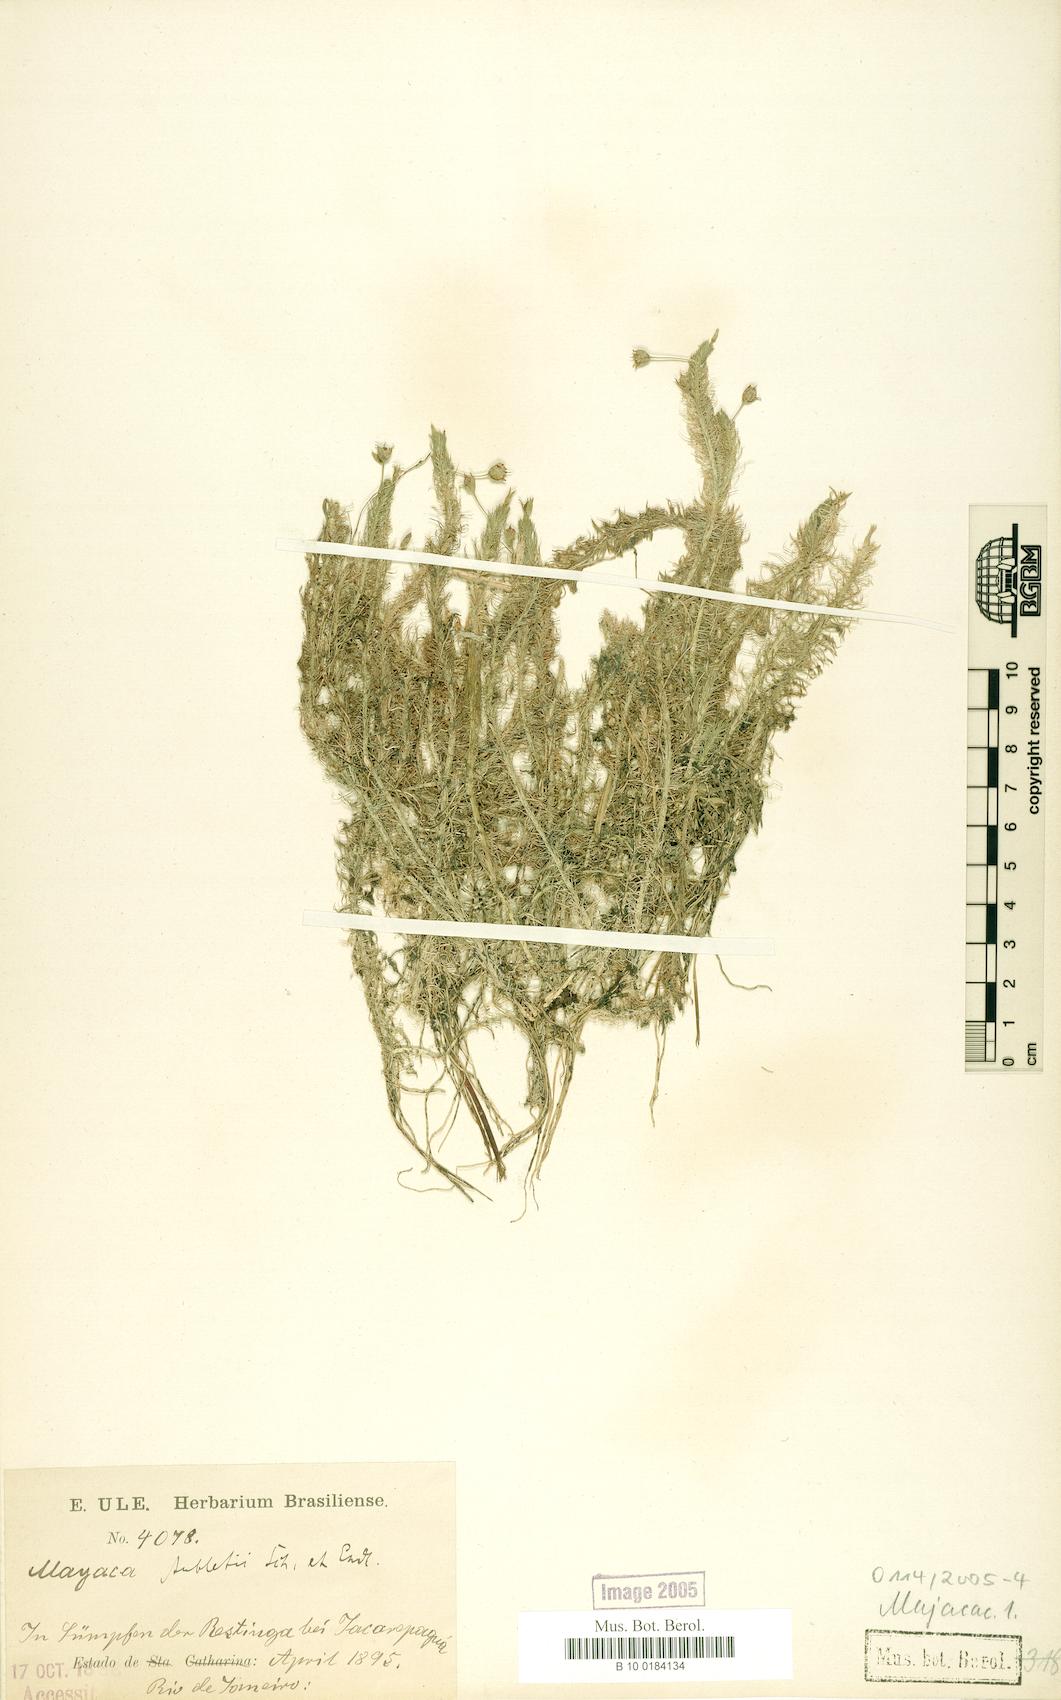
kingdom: Plantae
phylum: Tracheophyta
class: Liliopsida
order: Poales
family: Mayacaceae
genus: Mayaca
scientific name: Mayaca fluviatilis
